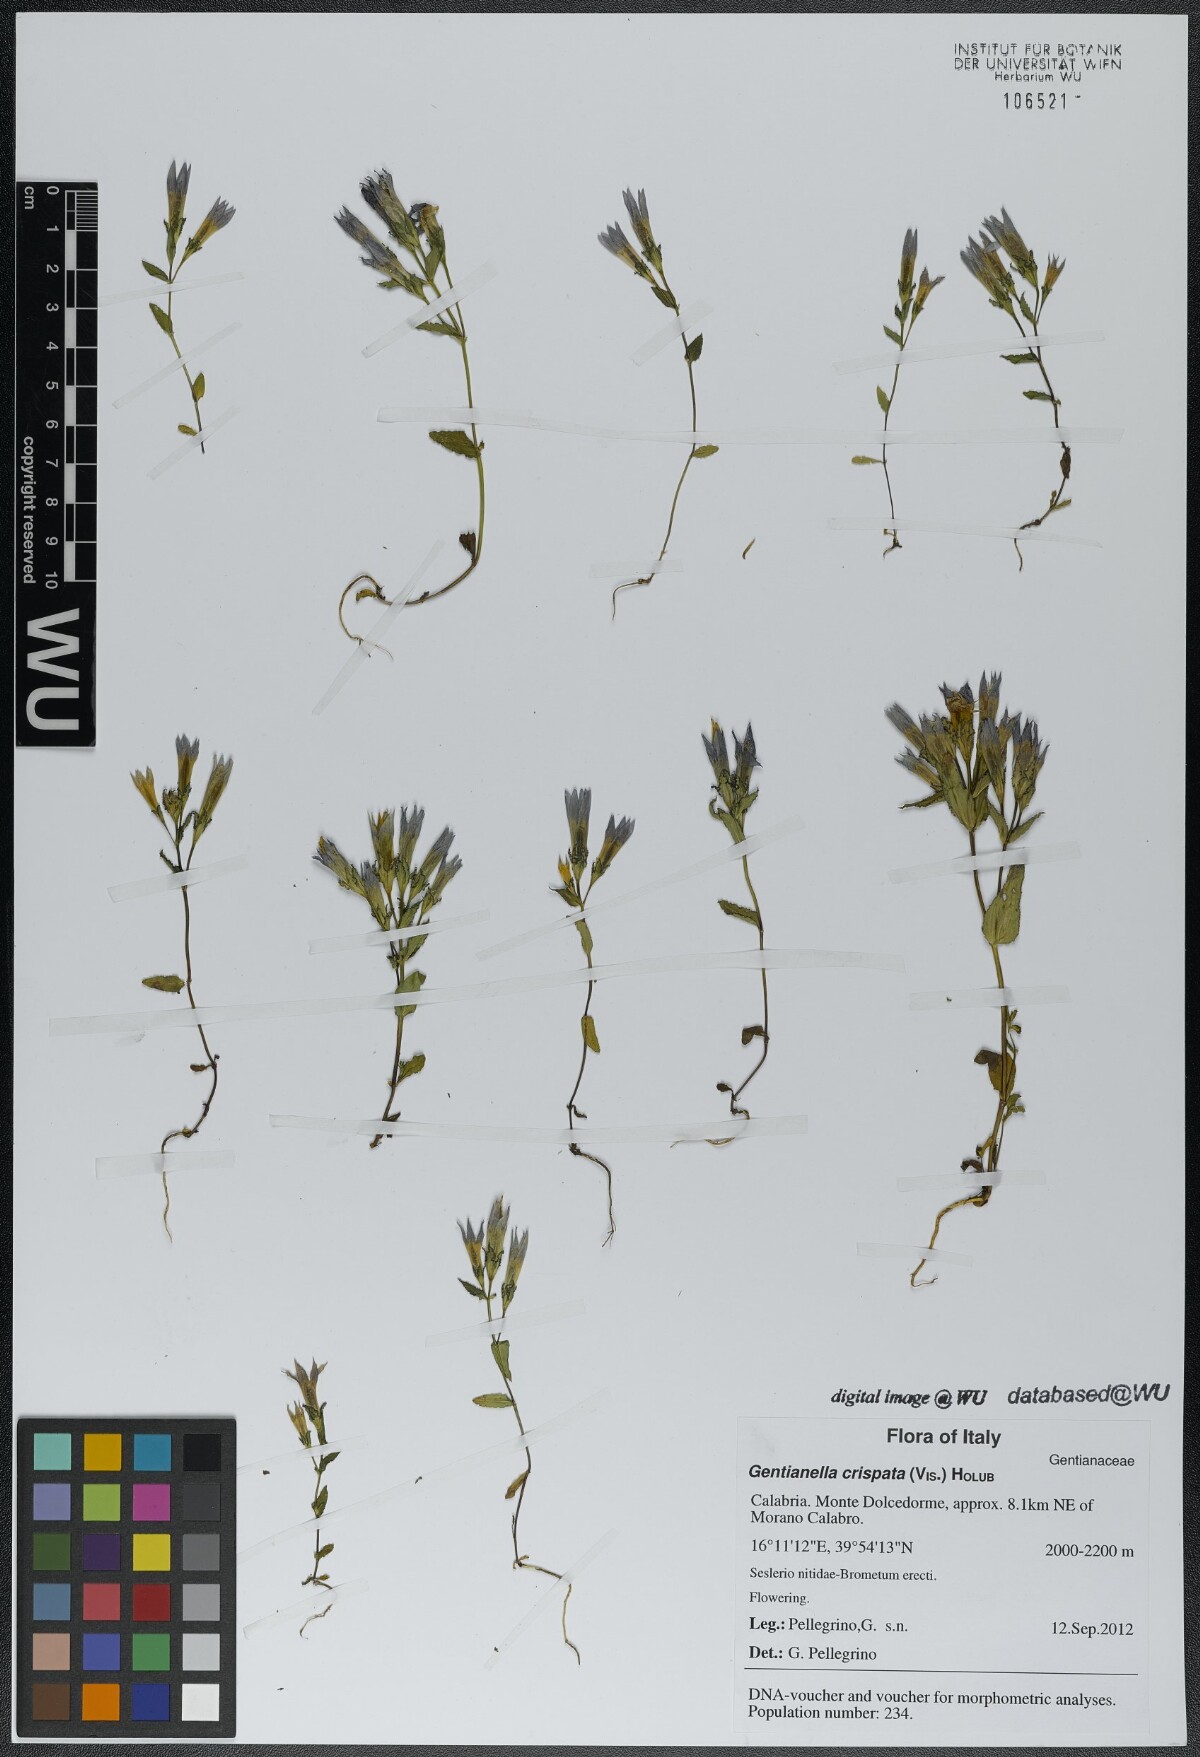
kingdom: Plantae
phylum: Tracheophyta
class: Magnoliopsida
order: Gentianales
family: Gentianaceae
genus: Gentianella
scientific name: Gentianella crispata
